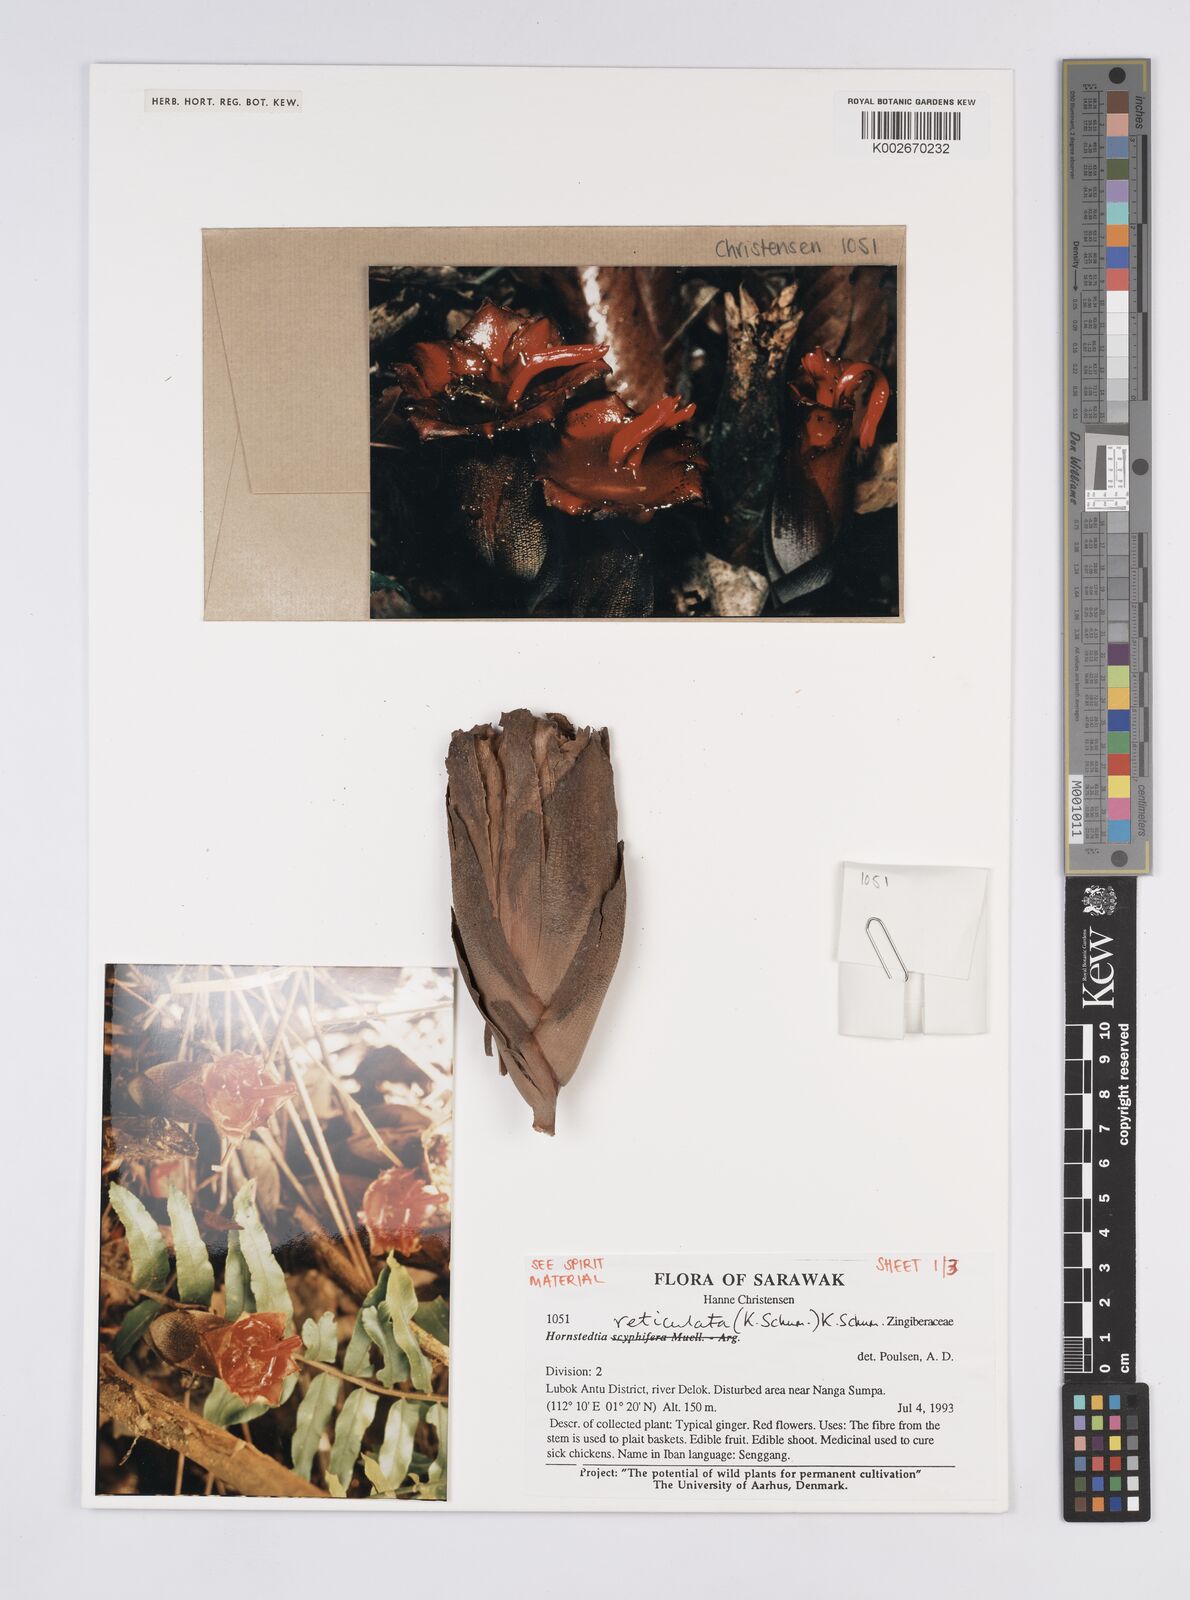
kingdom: Plantae
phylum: Tracheophyta
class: Liliopsida
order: Zingiberales
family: Zingiberaceae
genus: Hornstedtia
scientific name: Hornstedtia reticulata
